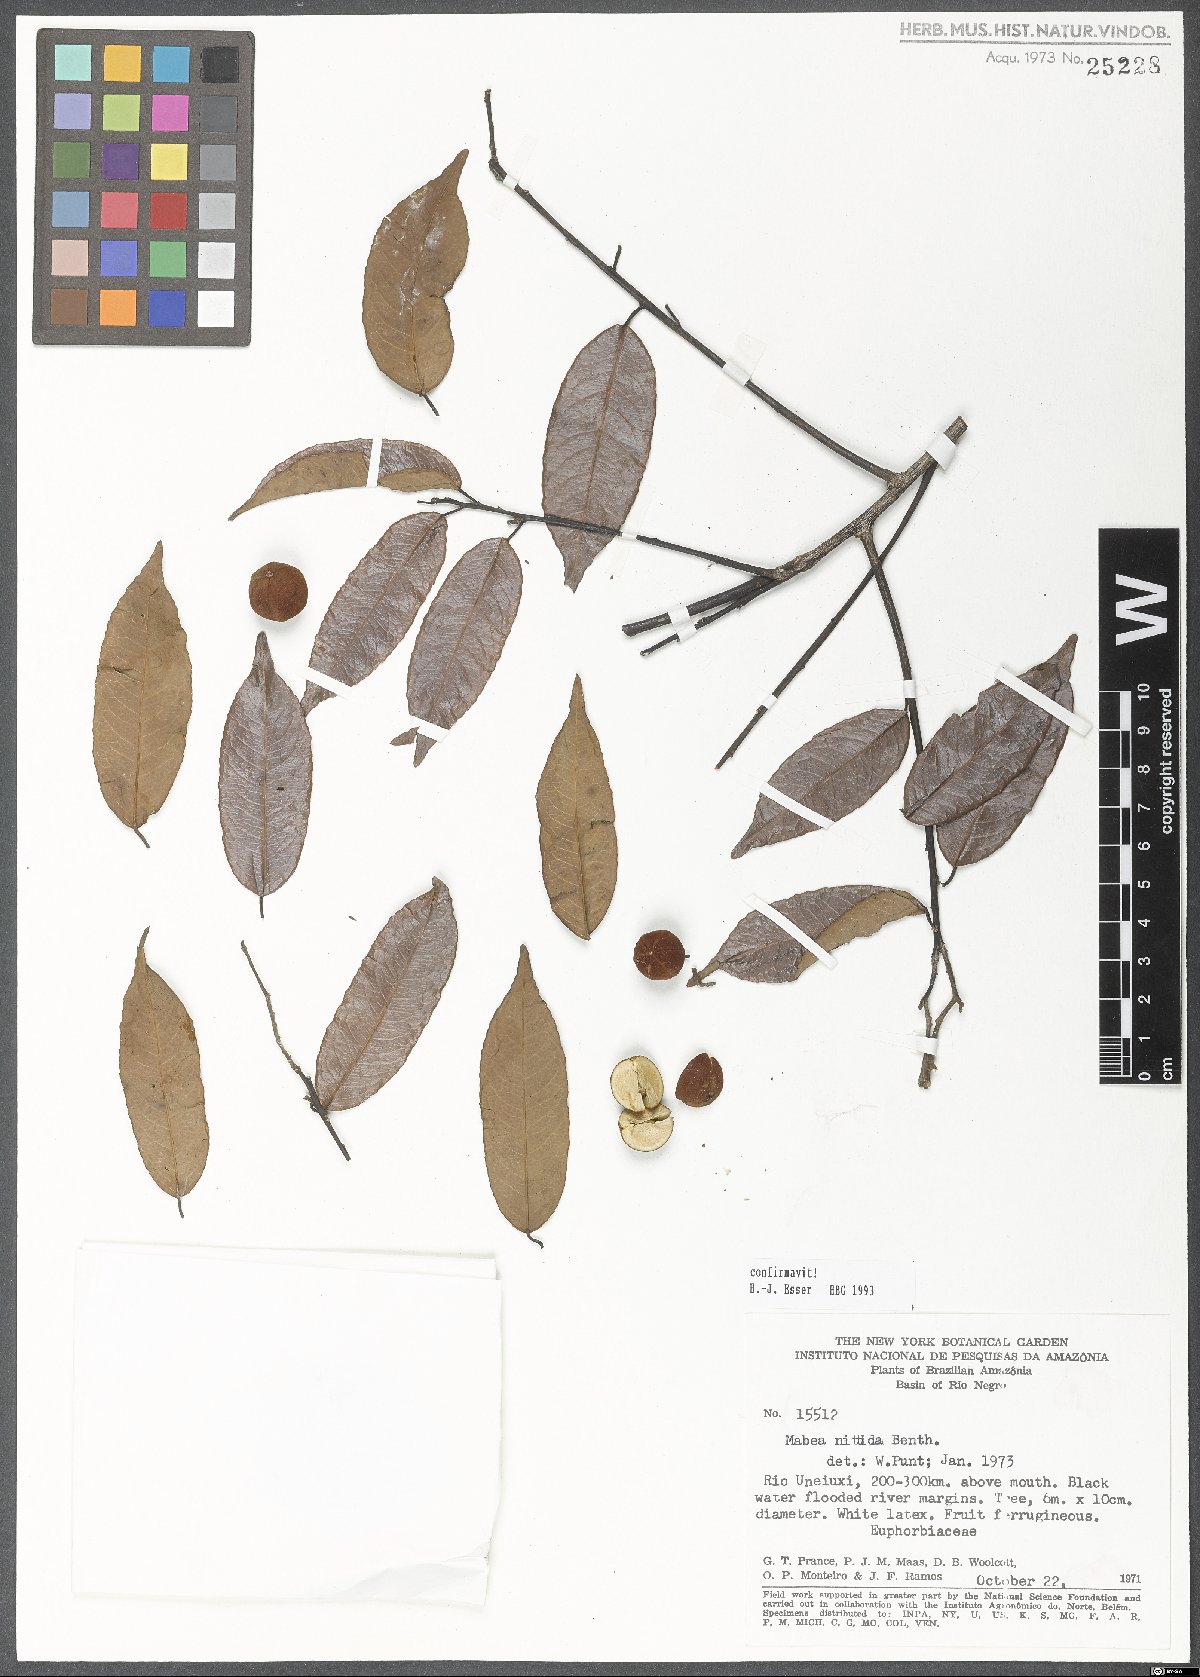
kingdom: Plantae
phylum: Tracheophyta
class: Magnoliopsida
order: Malpighiales
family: Euphorbiaceae
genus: Mabea
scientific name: Mabea nitida
